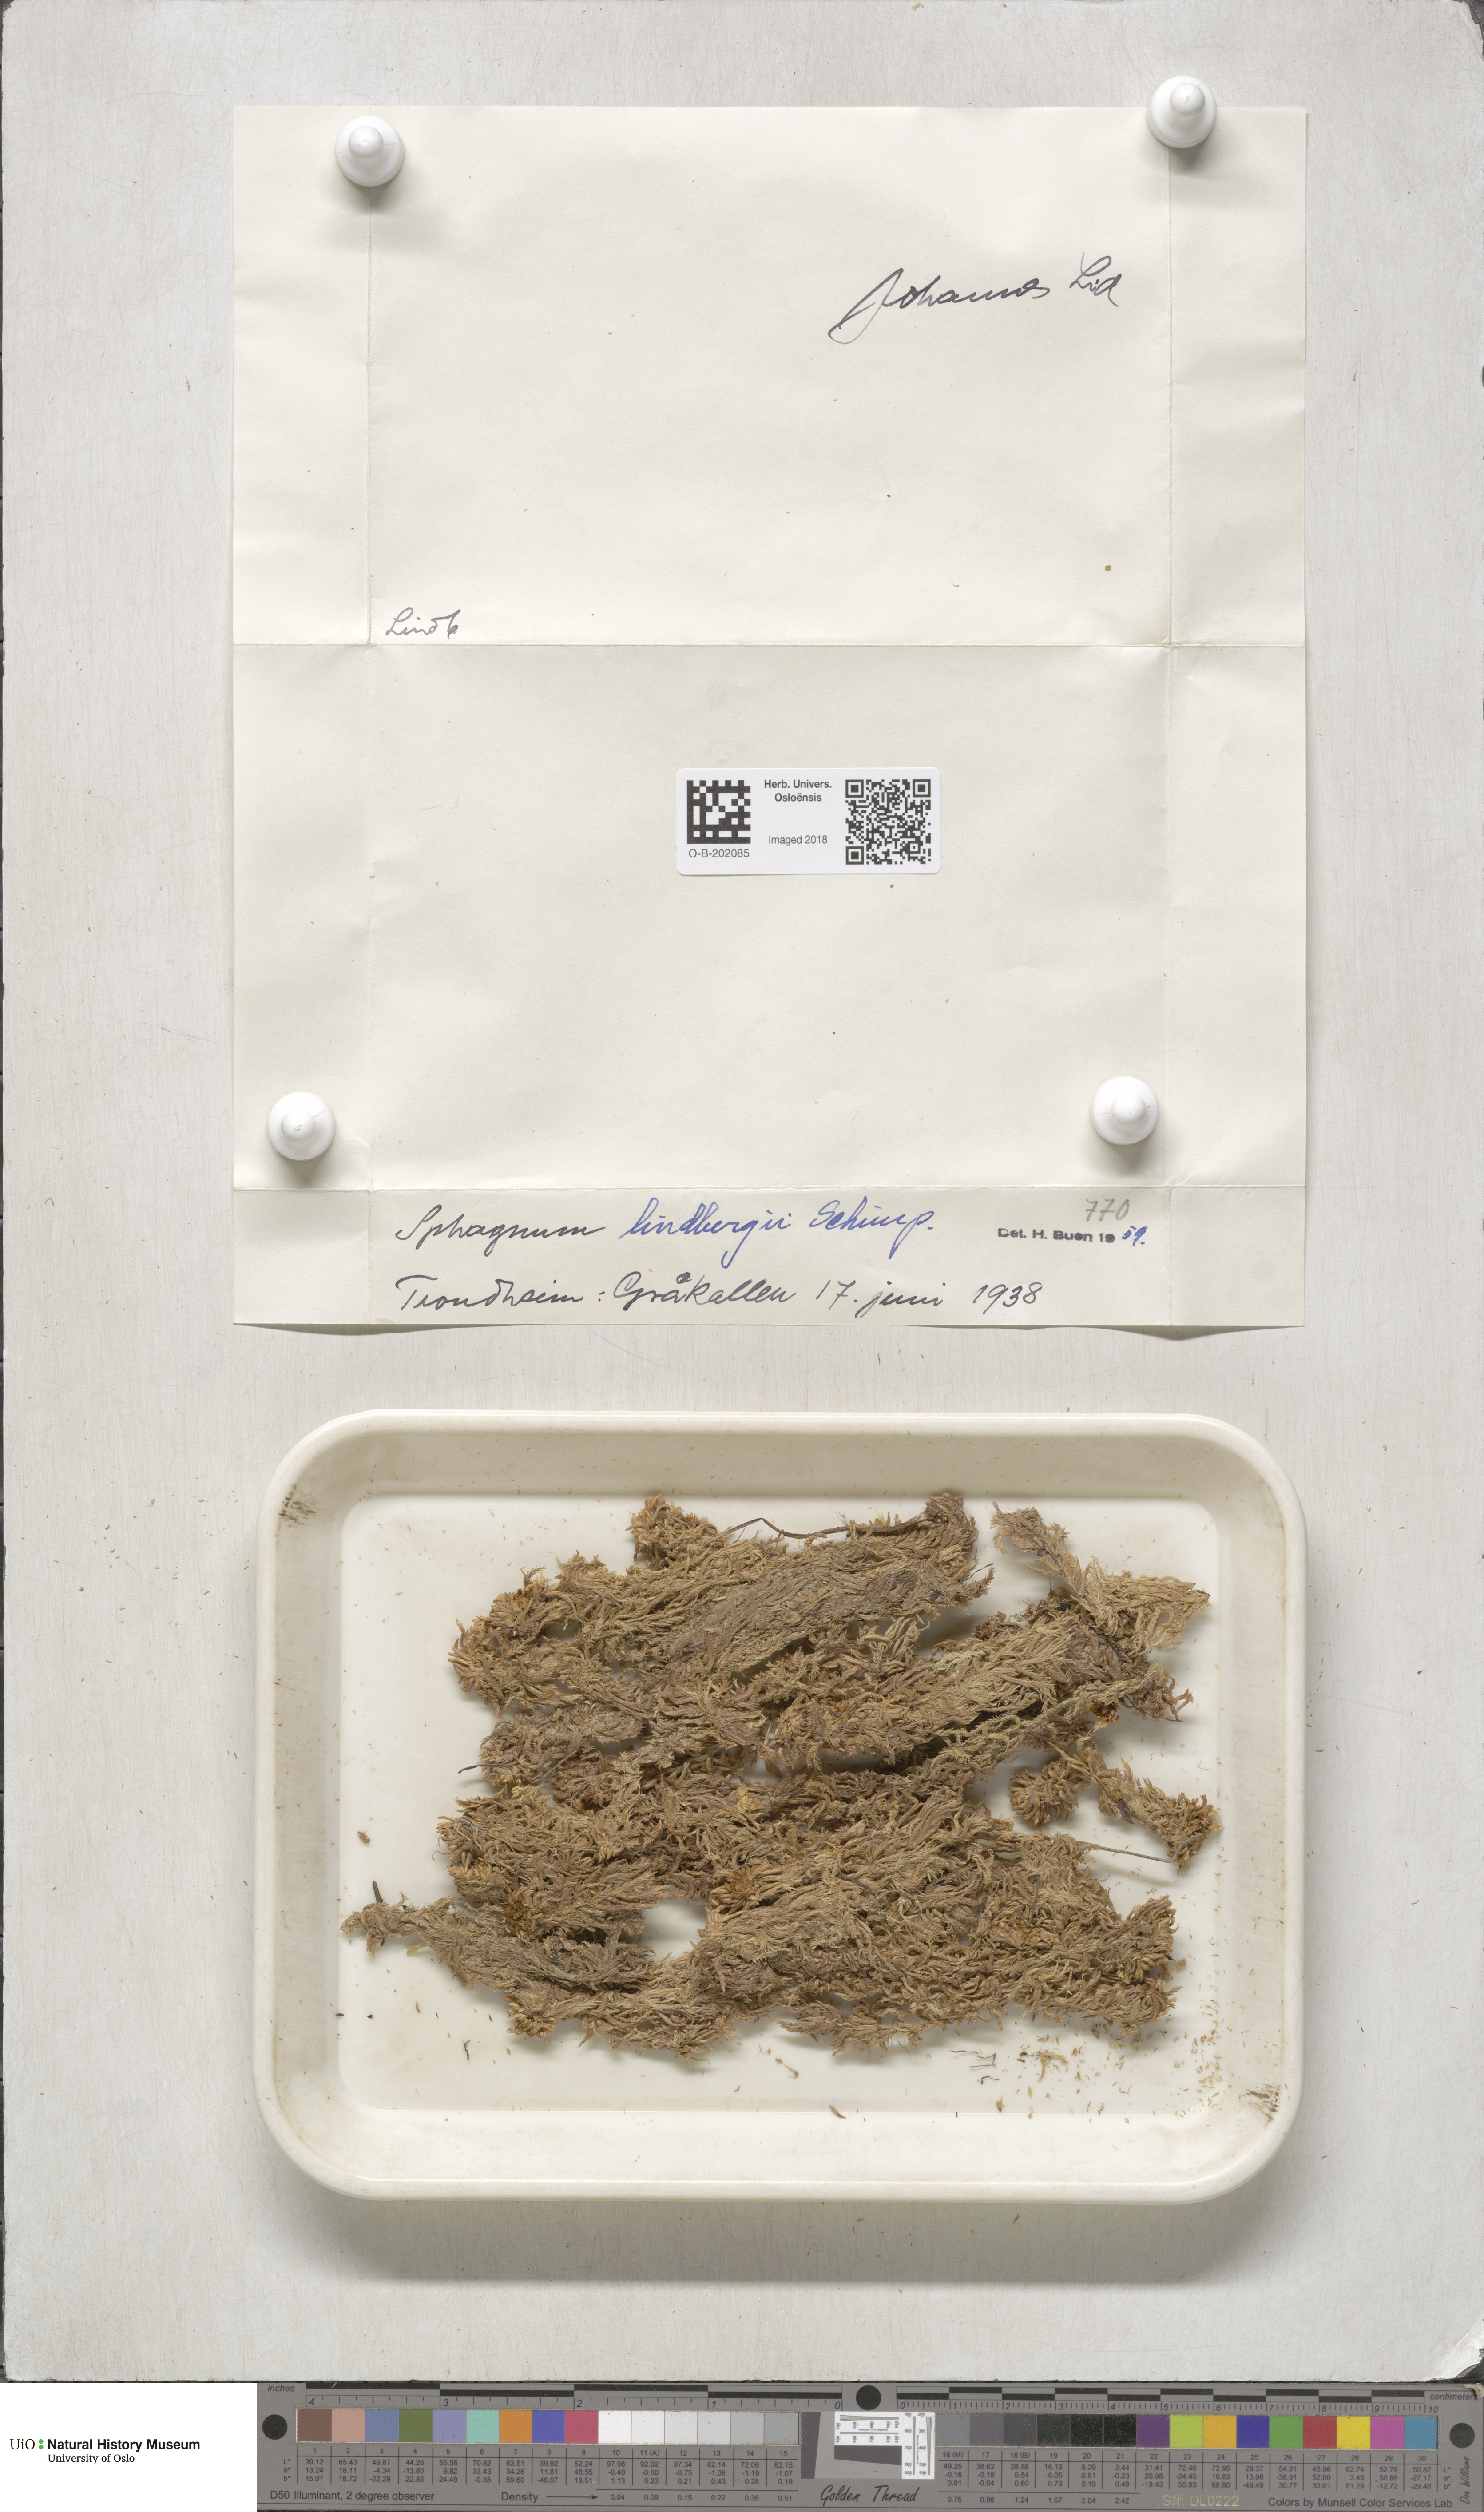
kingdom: Plantae
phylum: Bryophyta
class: Sphagnopsida
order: Sphagnales
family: Sphagnaceae
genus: Sphagnum
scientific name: Sphagnum lindbergii
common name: Lindberg's peat moss
